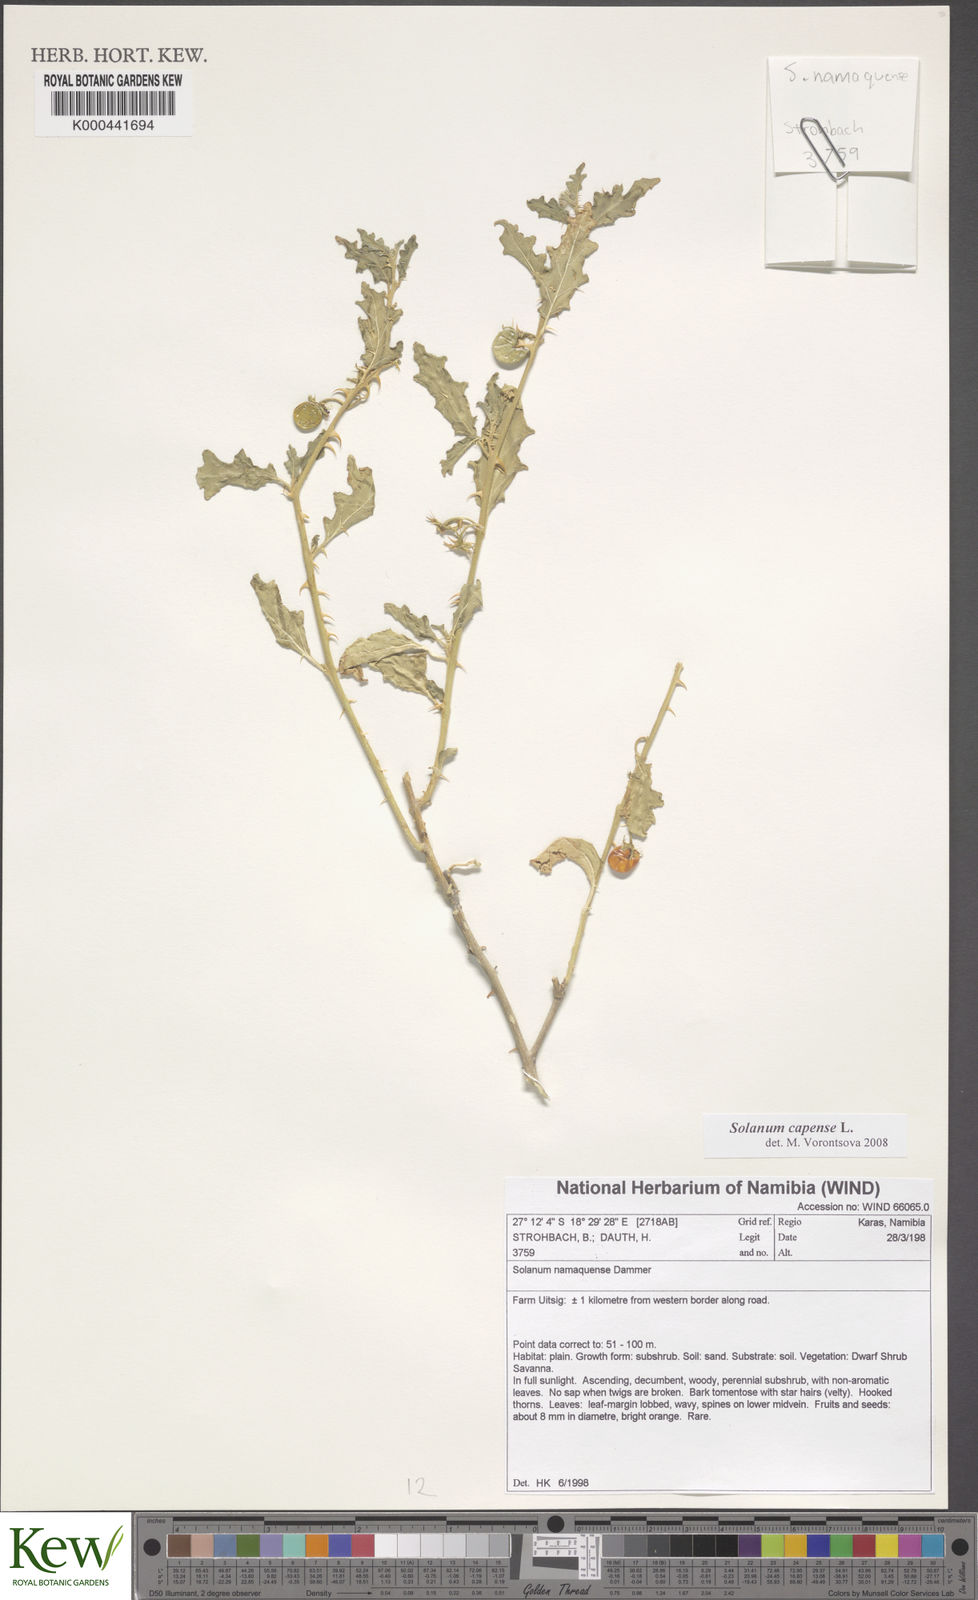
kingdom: Plantae
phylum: Tracheophyta
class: Magnoliopsida
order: Solanales
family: Solanaceae
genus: Solanum
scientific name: Solanum capense
